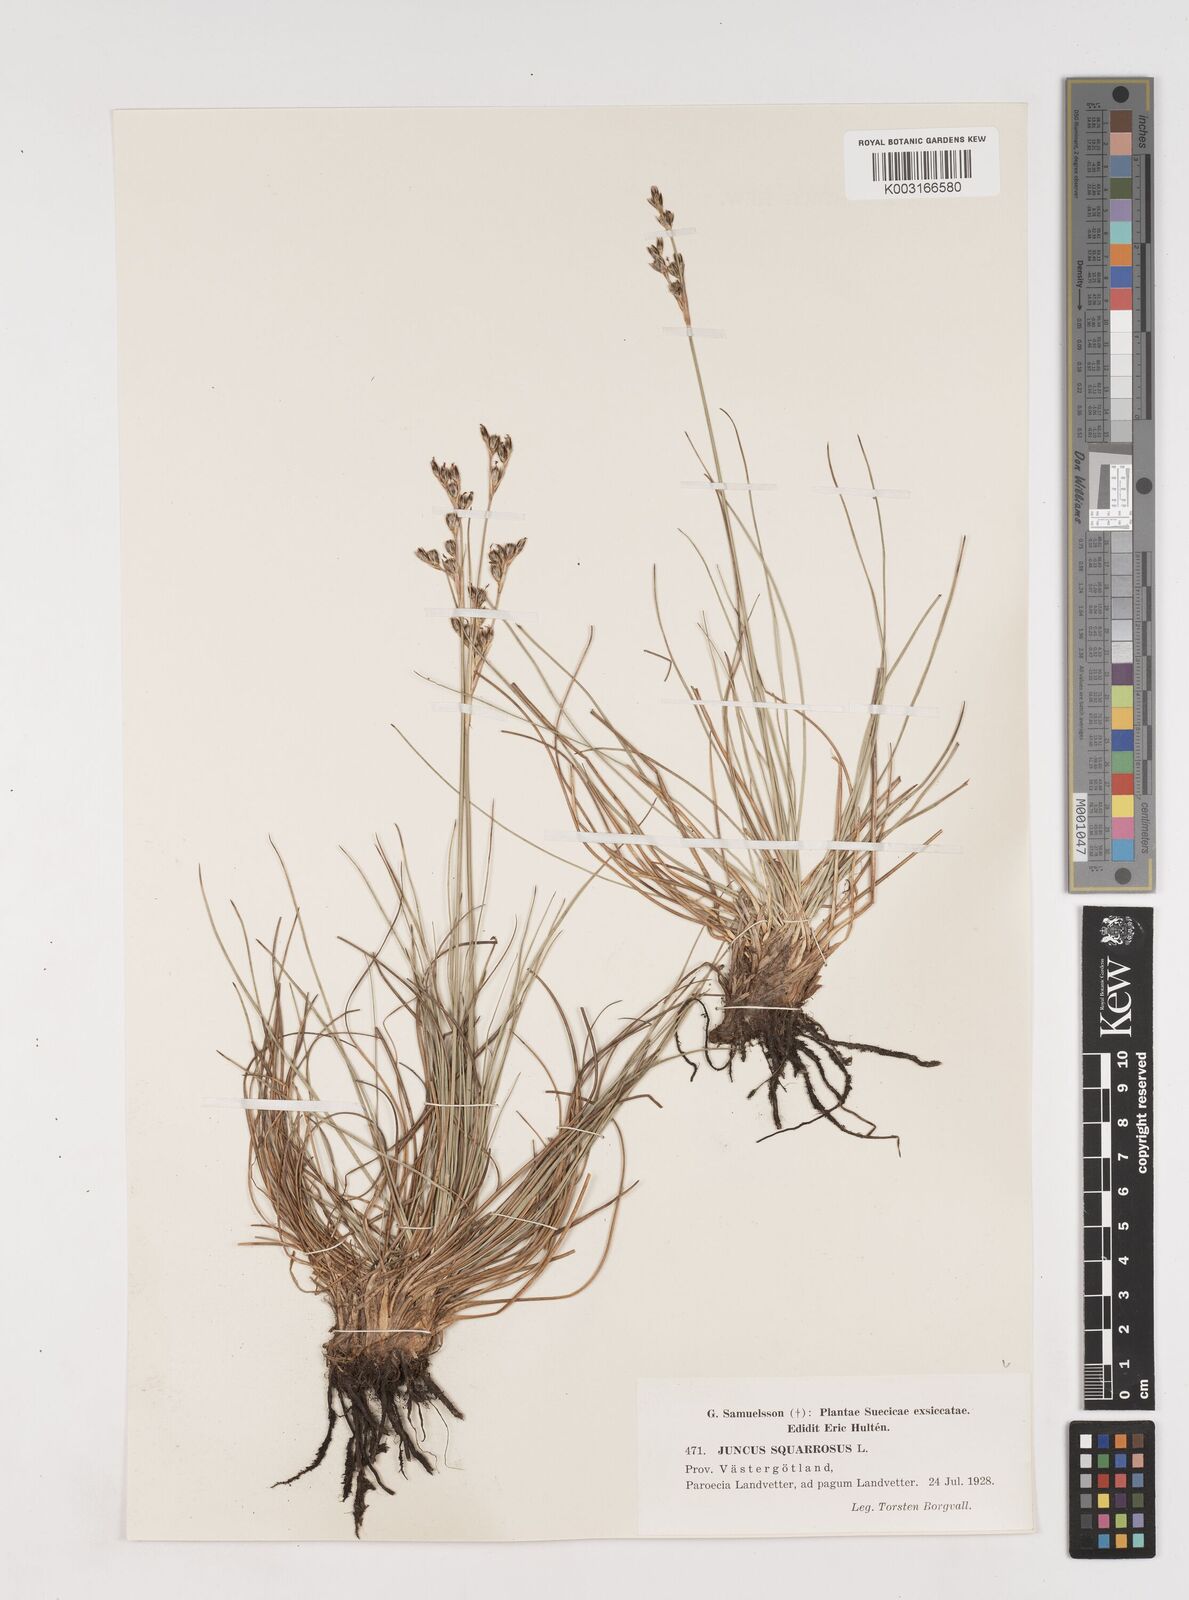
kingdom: Plantae
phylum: Tracheophyta
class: Liliopsida
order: Poales
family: Juncaceae
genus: Juncus
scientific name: Juncus squarrosus
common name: Heath rush
